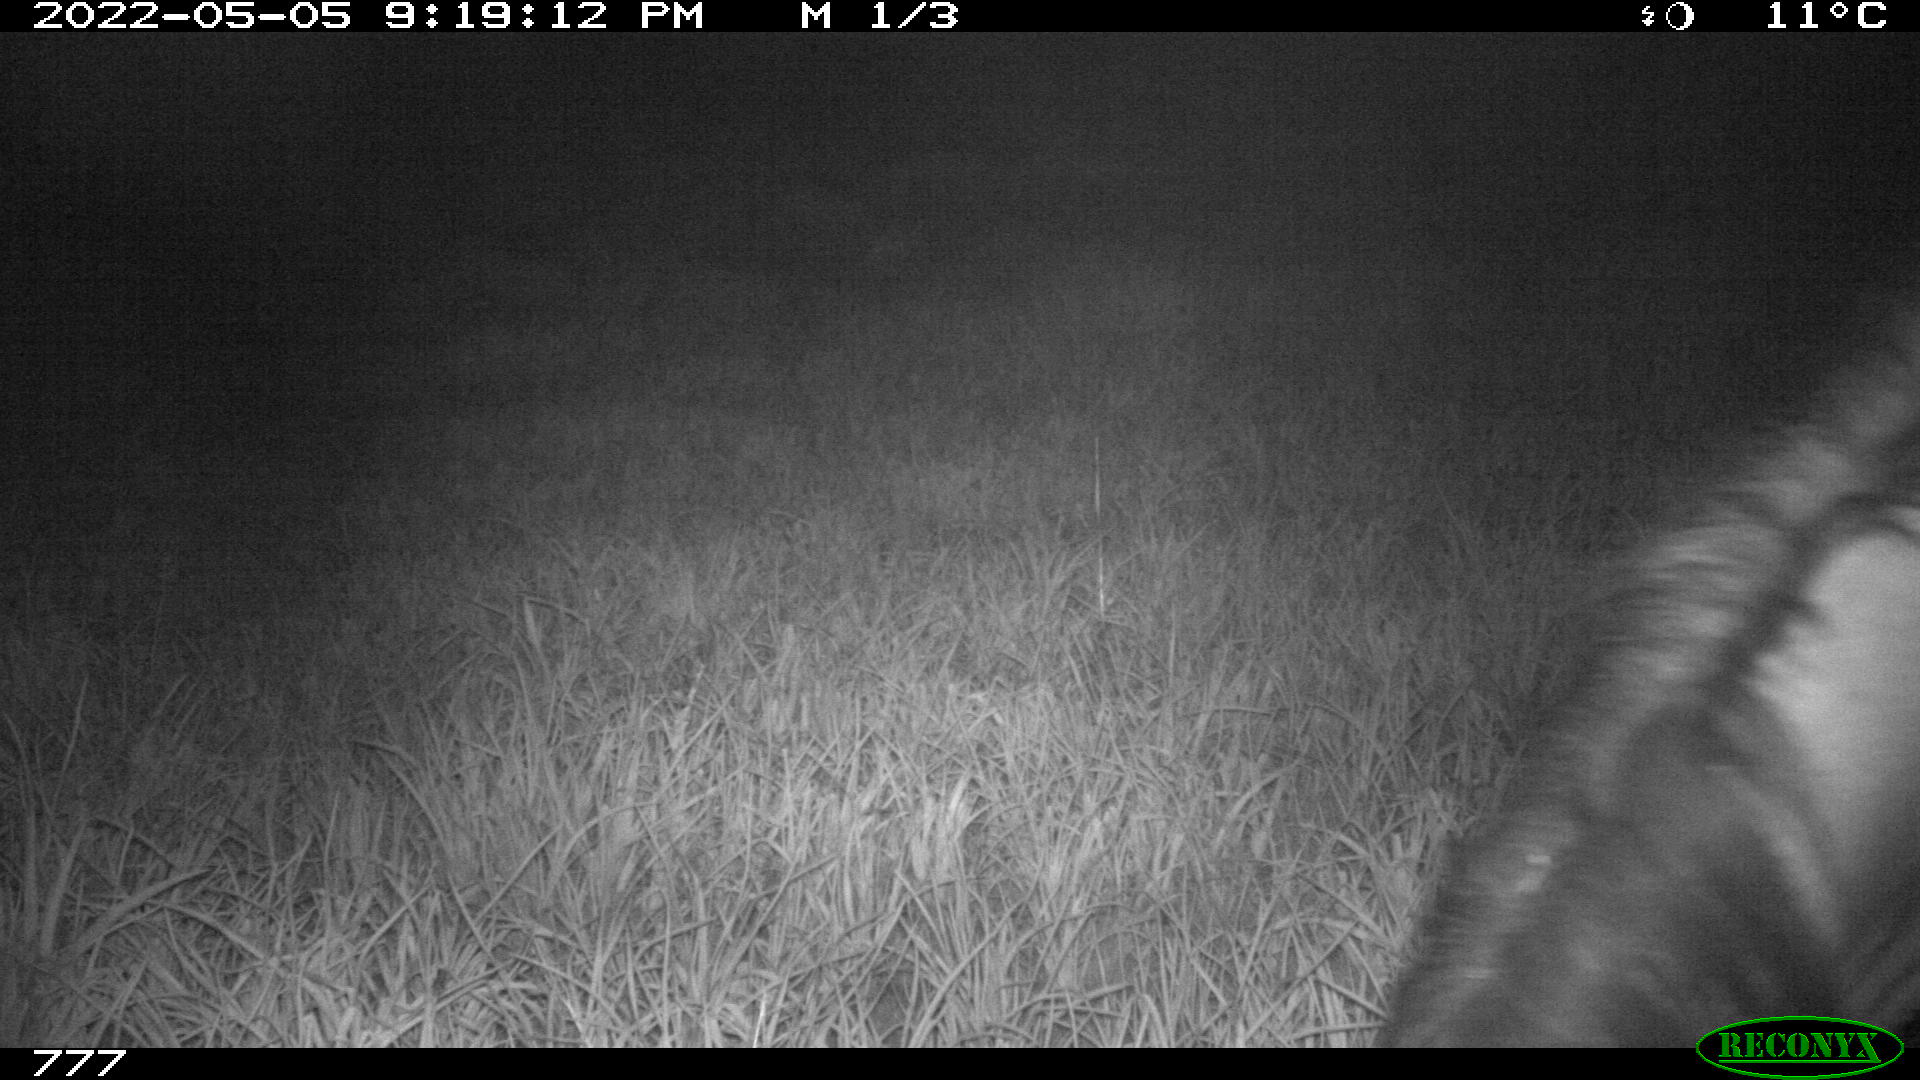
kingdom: Animalia
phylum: Chordata
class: Mammalia
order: Perissodactyla
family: Equidae
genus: Equus
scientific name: Equus caballus
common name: Horse
